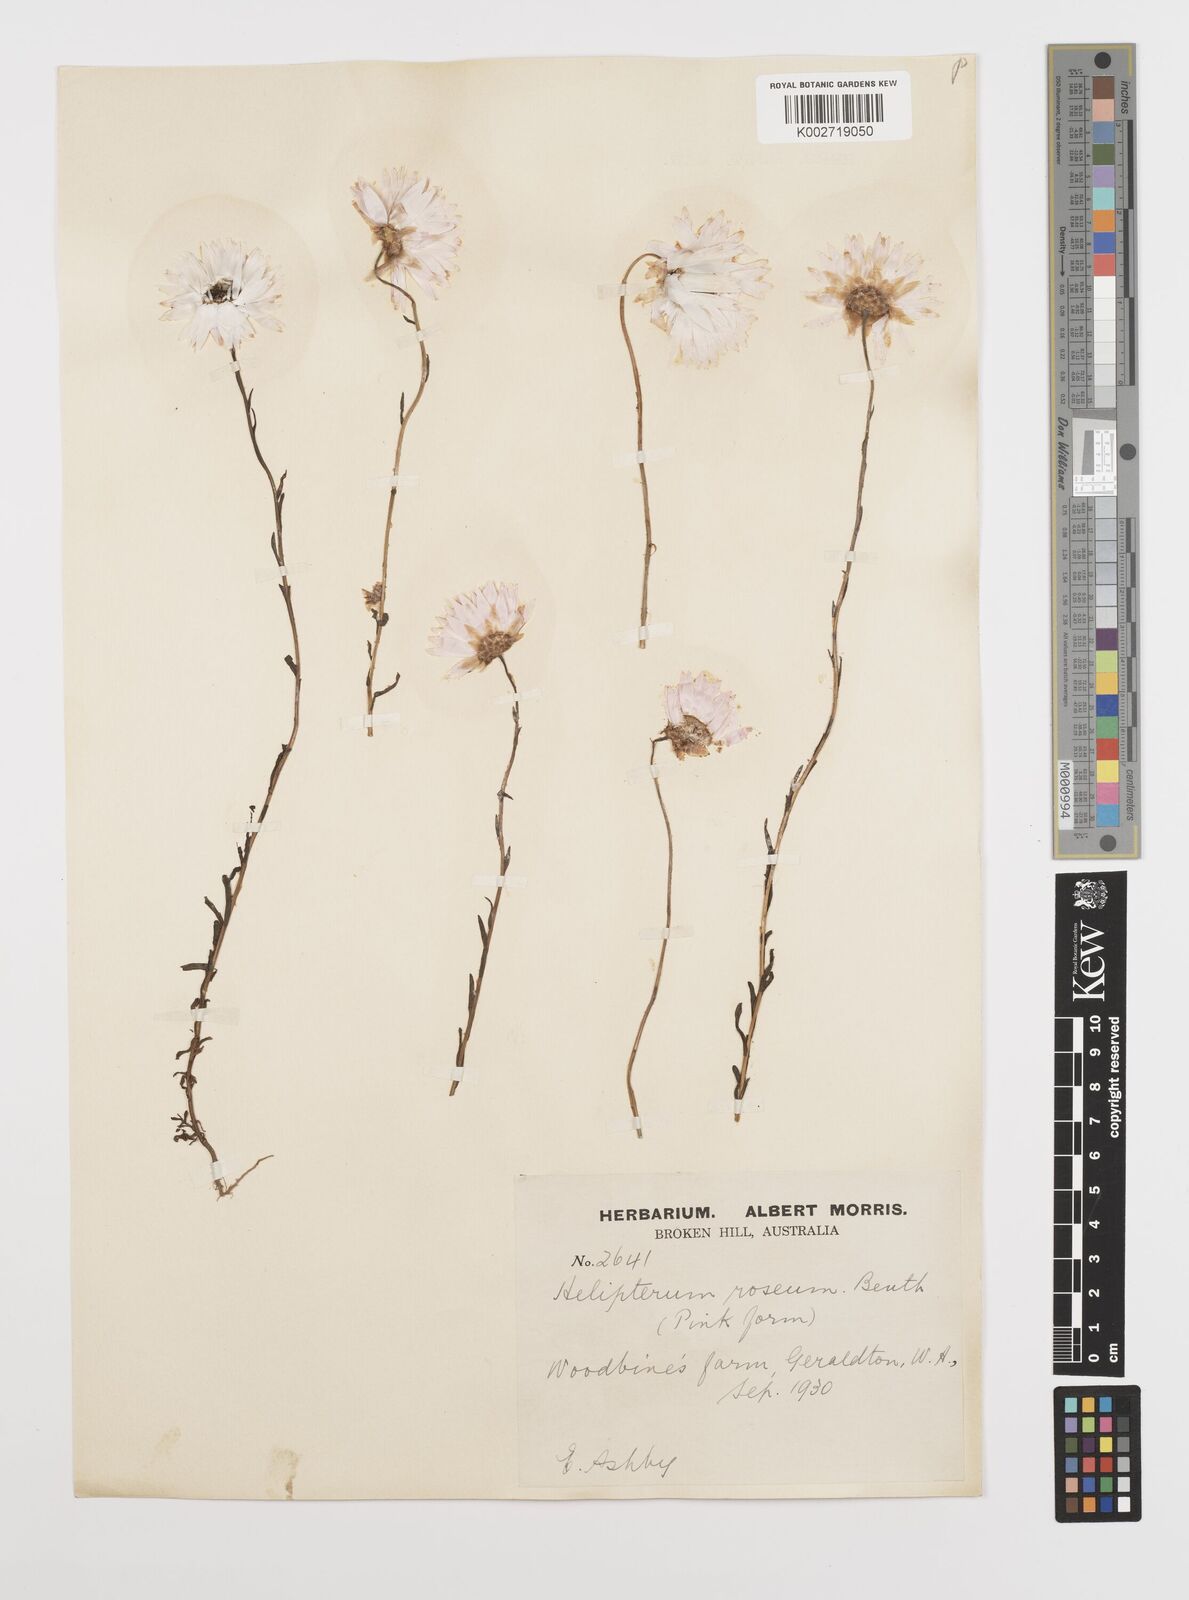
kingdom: Plantae
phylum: Tracheophyta
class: Magnoliopsida
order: Asterales
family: Asteraceae
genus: Rhodanthe
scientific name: Rhodanthe chlorocephala
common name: Rosy sunray
